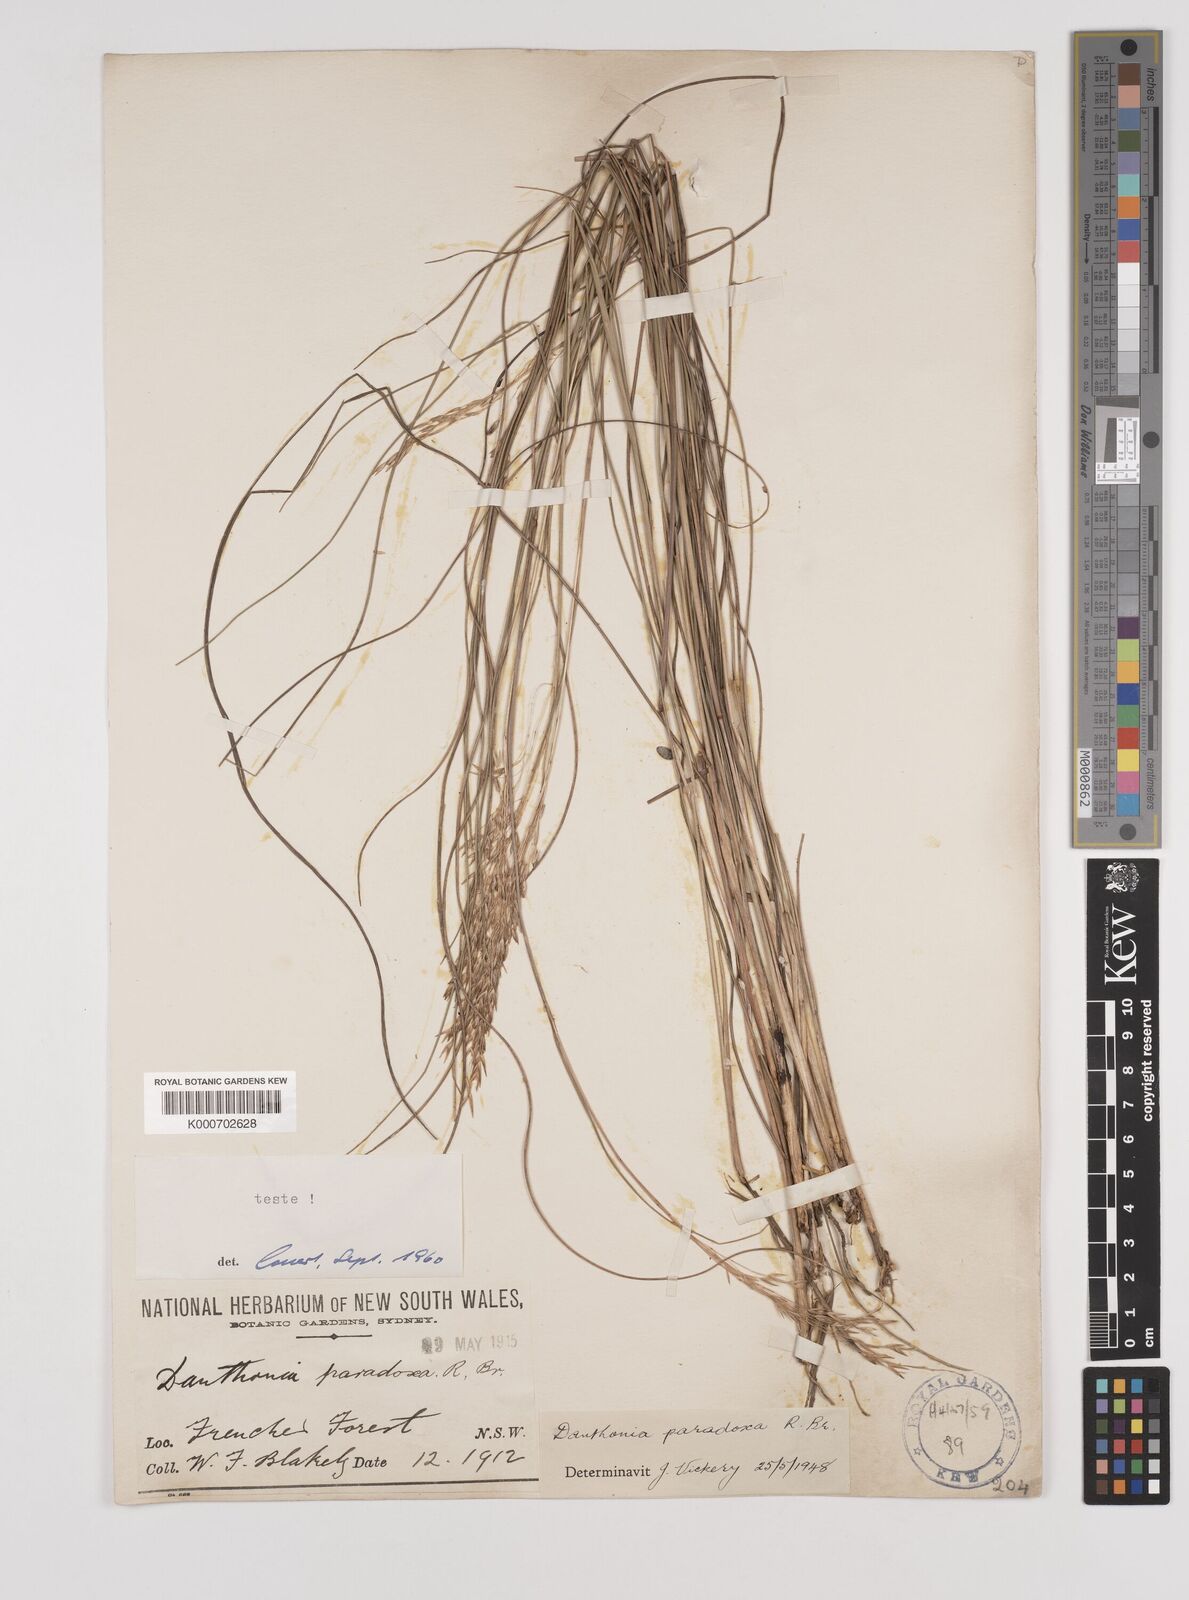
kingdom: Plantae
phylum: Tracheophyta
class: Liliopsida
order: Poales
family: Poaceae
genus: Plinthanthesis
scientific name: Plinthanthesis paradoxa
